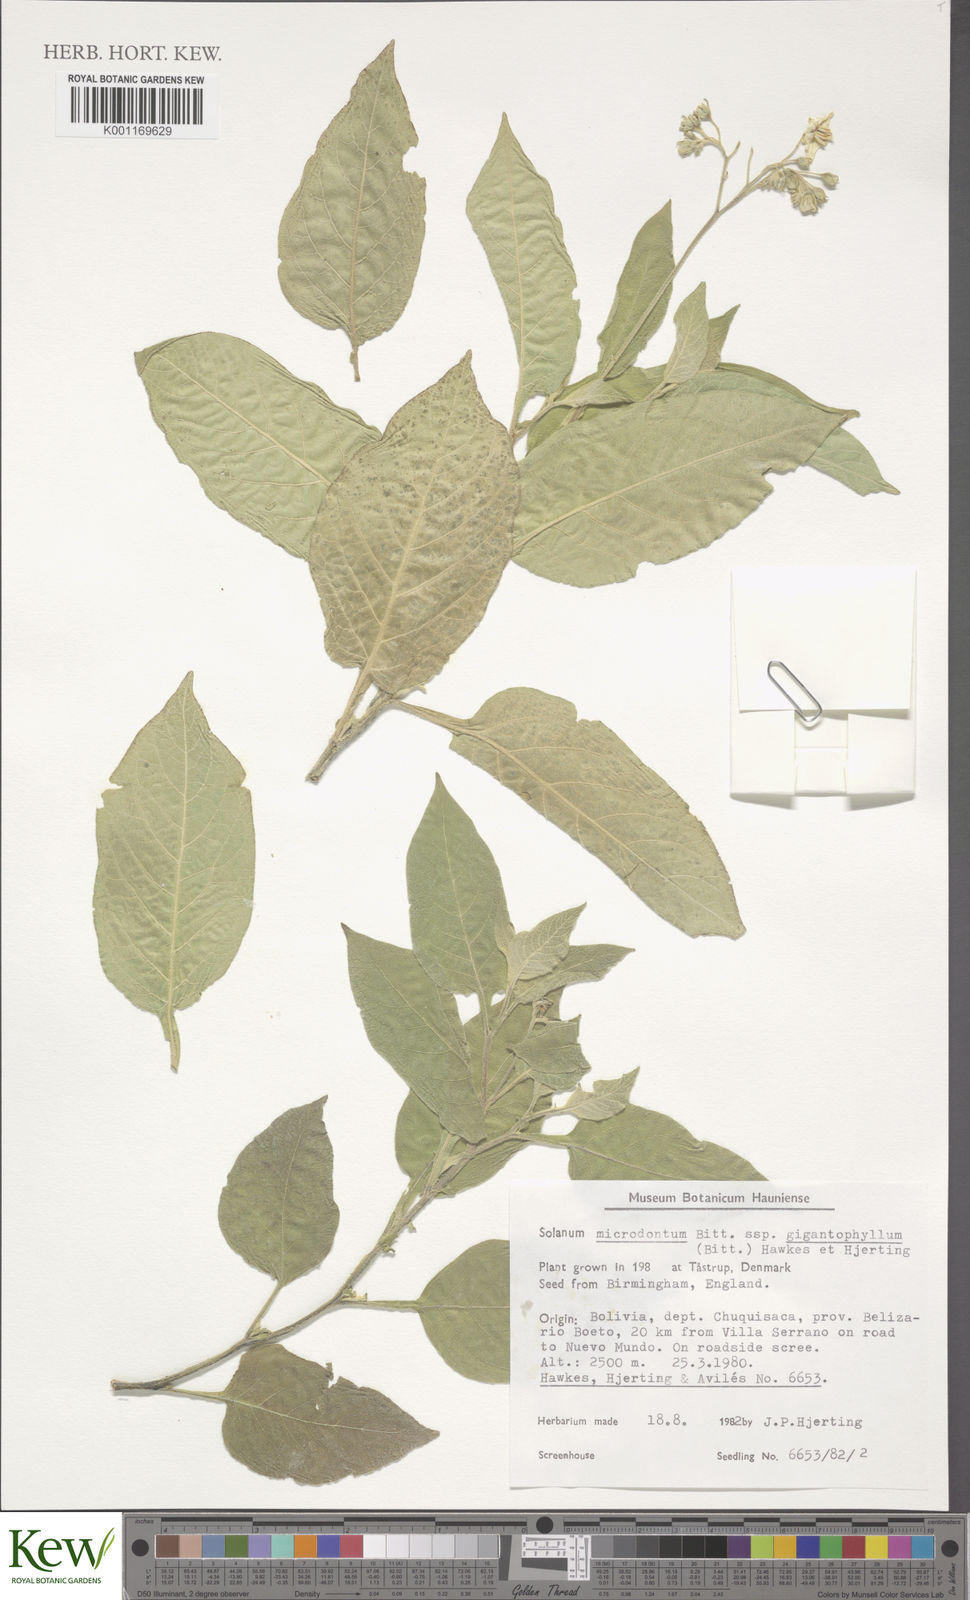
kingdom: Plantae
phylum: Tracheophyta
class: Magnoliopsida
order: Solanales
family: Solanaceae
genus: Solanum
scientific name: Solanum microdontum
